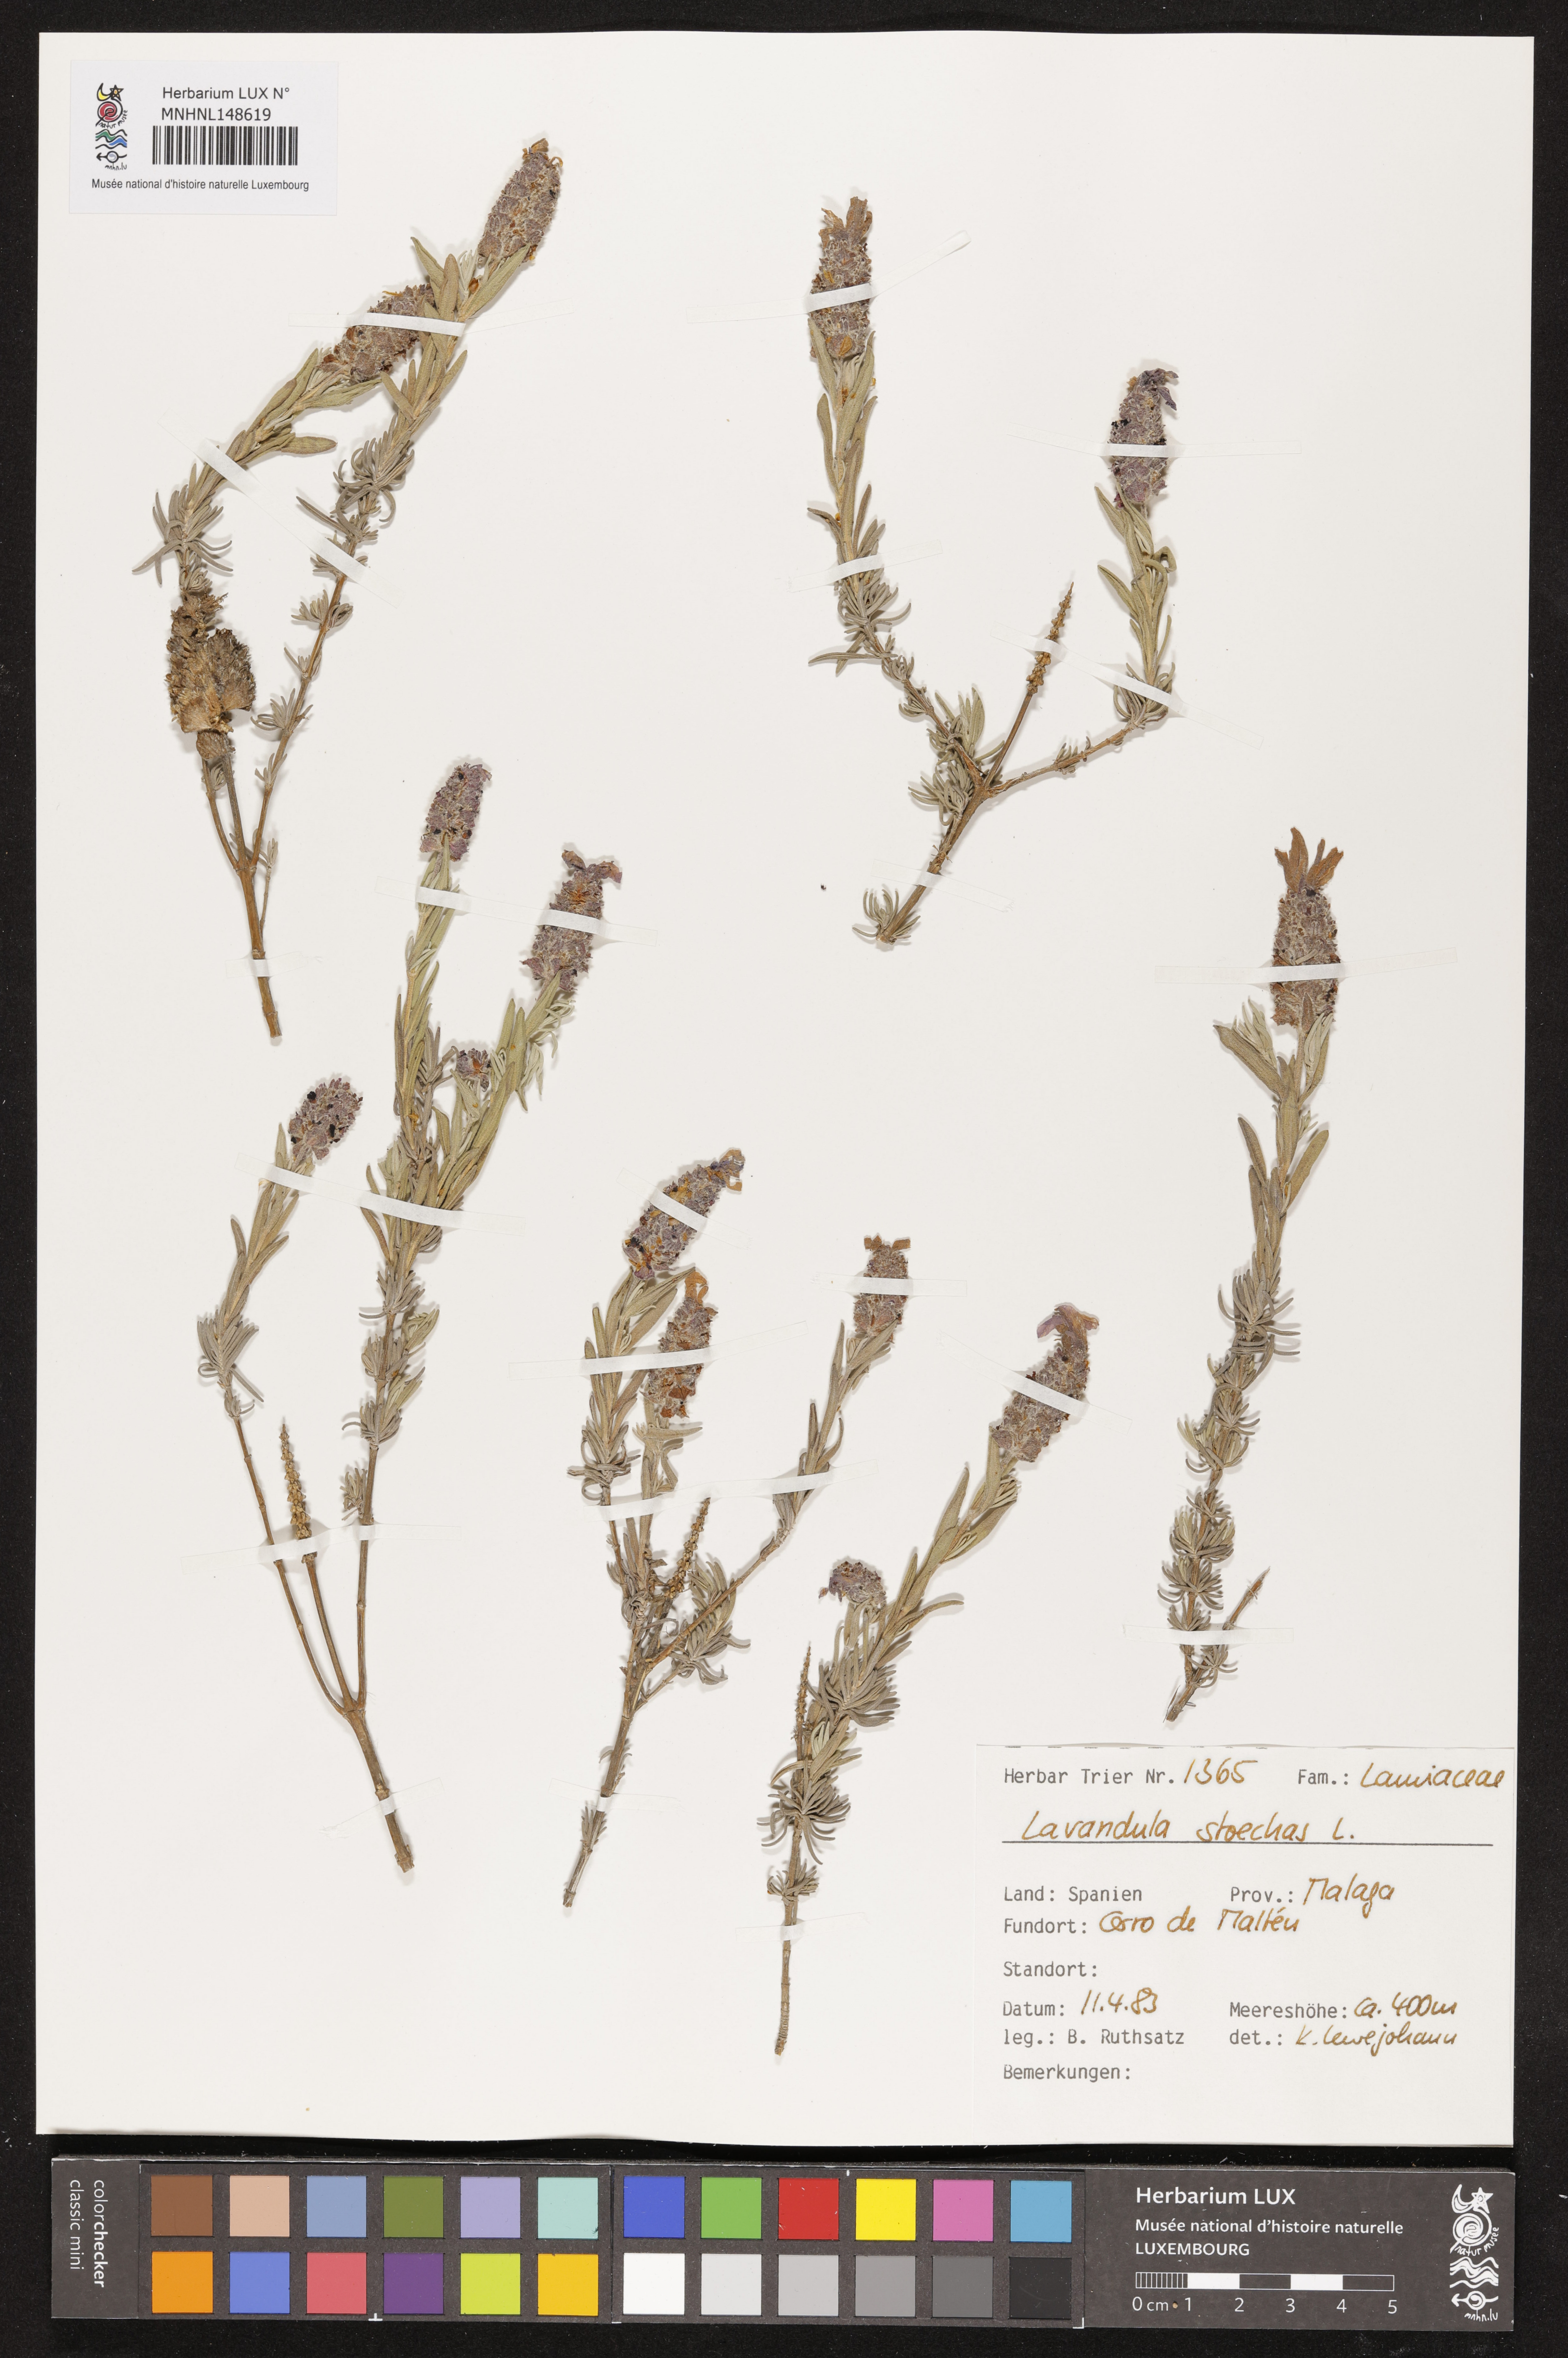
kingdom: Plantae
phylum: Tracheophyta
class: Magnoliopsida
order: Lamiales
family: Lamiaceae
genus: Lavandula
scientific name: Lavandula stoechas
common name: French lavender
